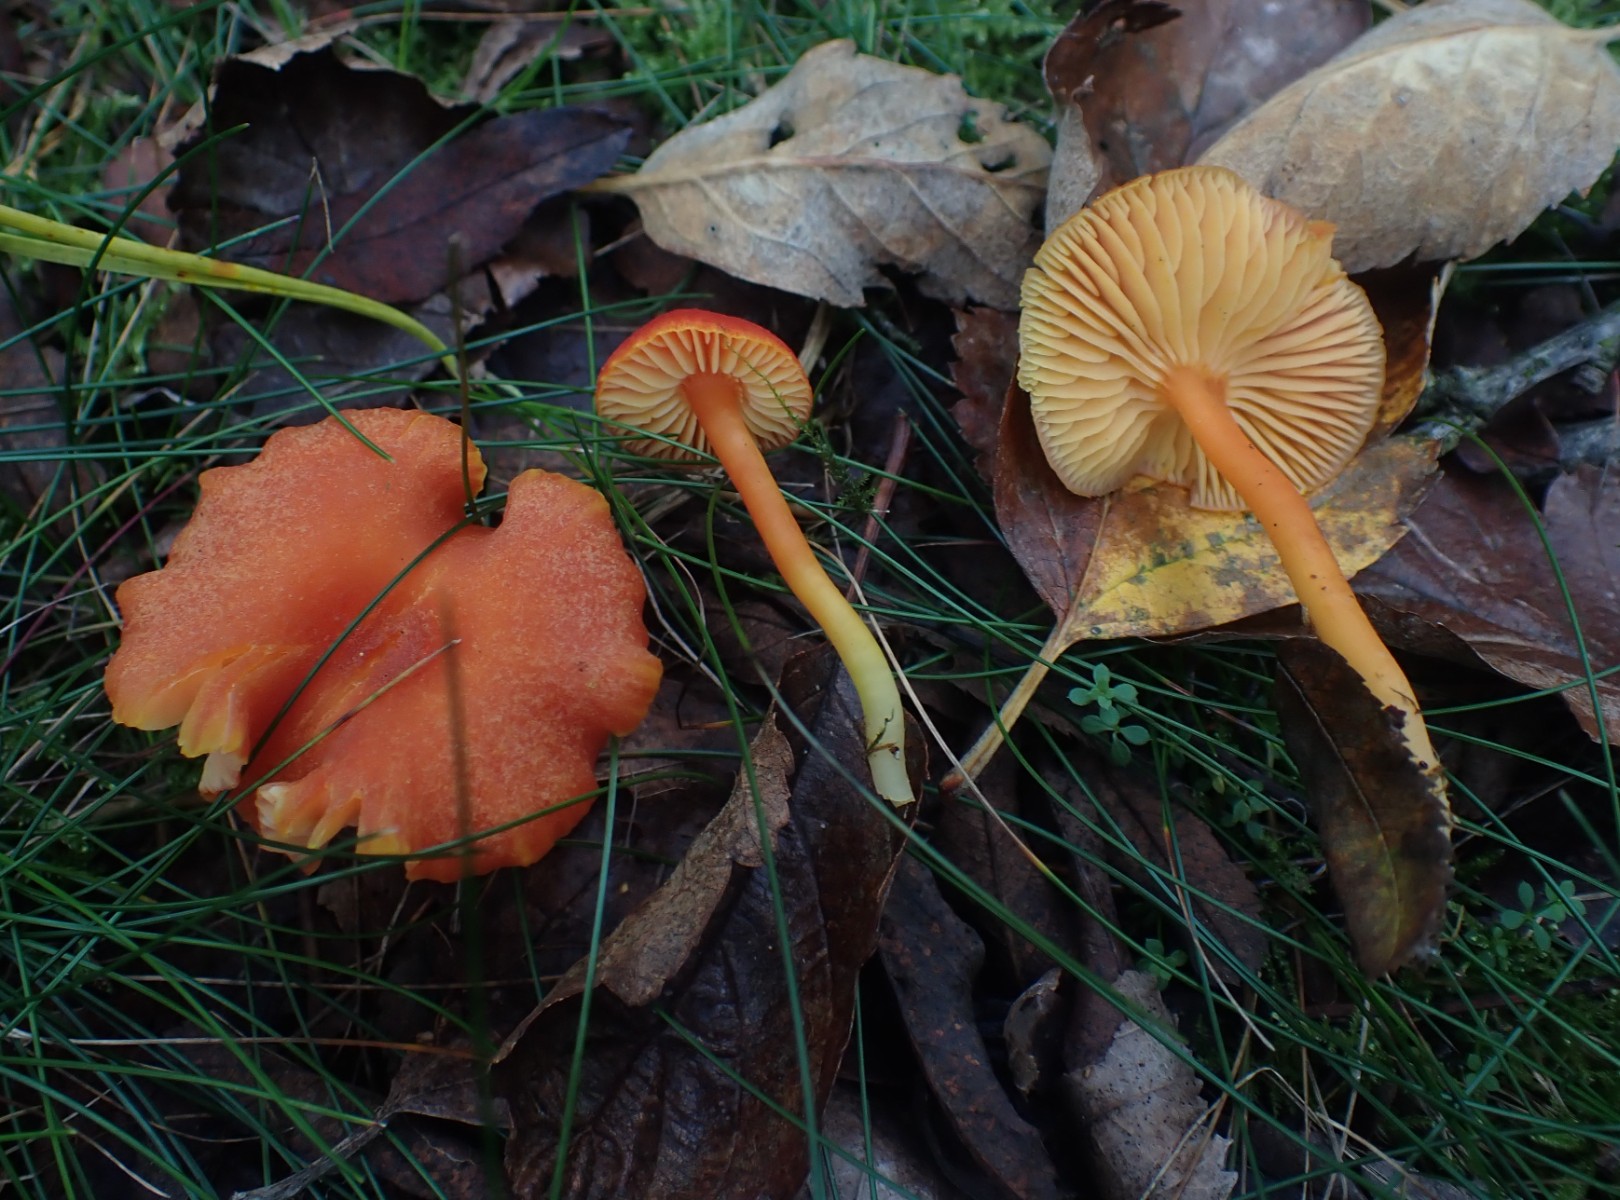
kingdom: Fungi
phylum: Basidiomycota
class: Agaricomycetes
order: Agaricales
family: Hygrophoraceae
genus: Hygrocybe
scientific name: Hygrocybe miniata
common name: mønje-vokshat
